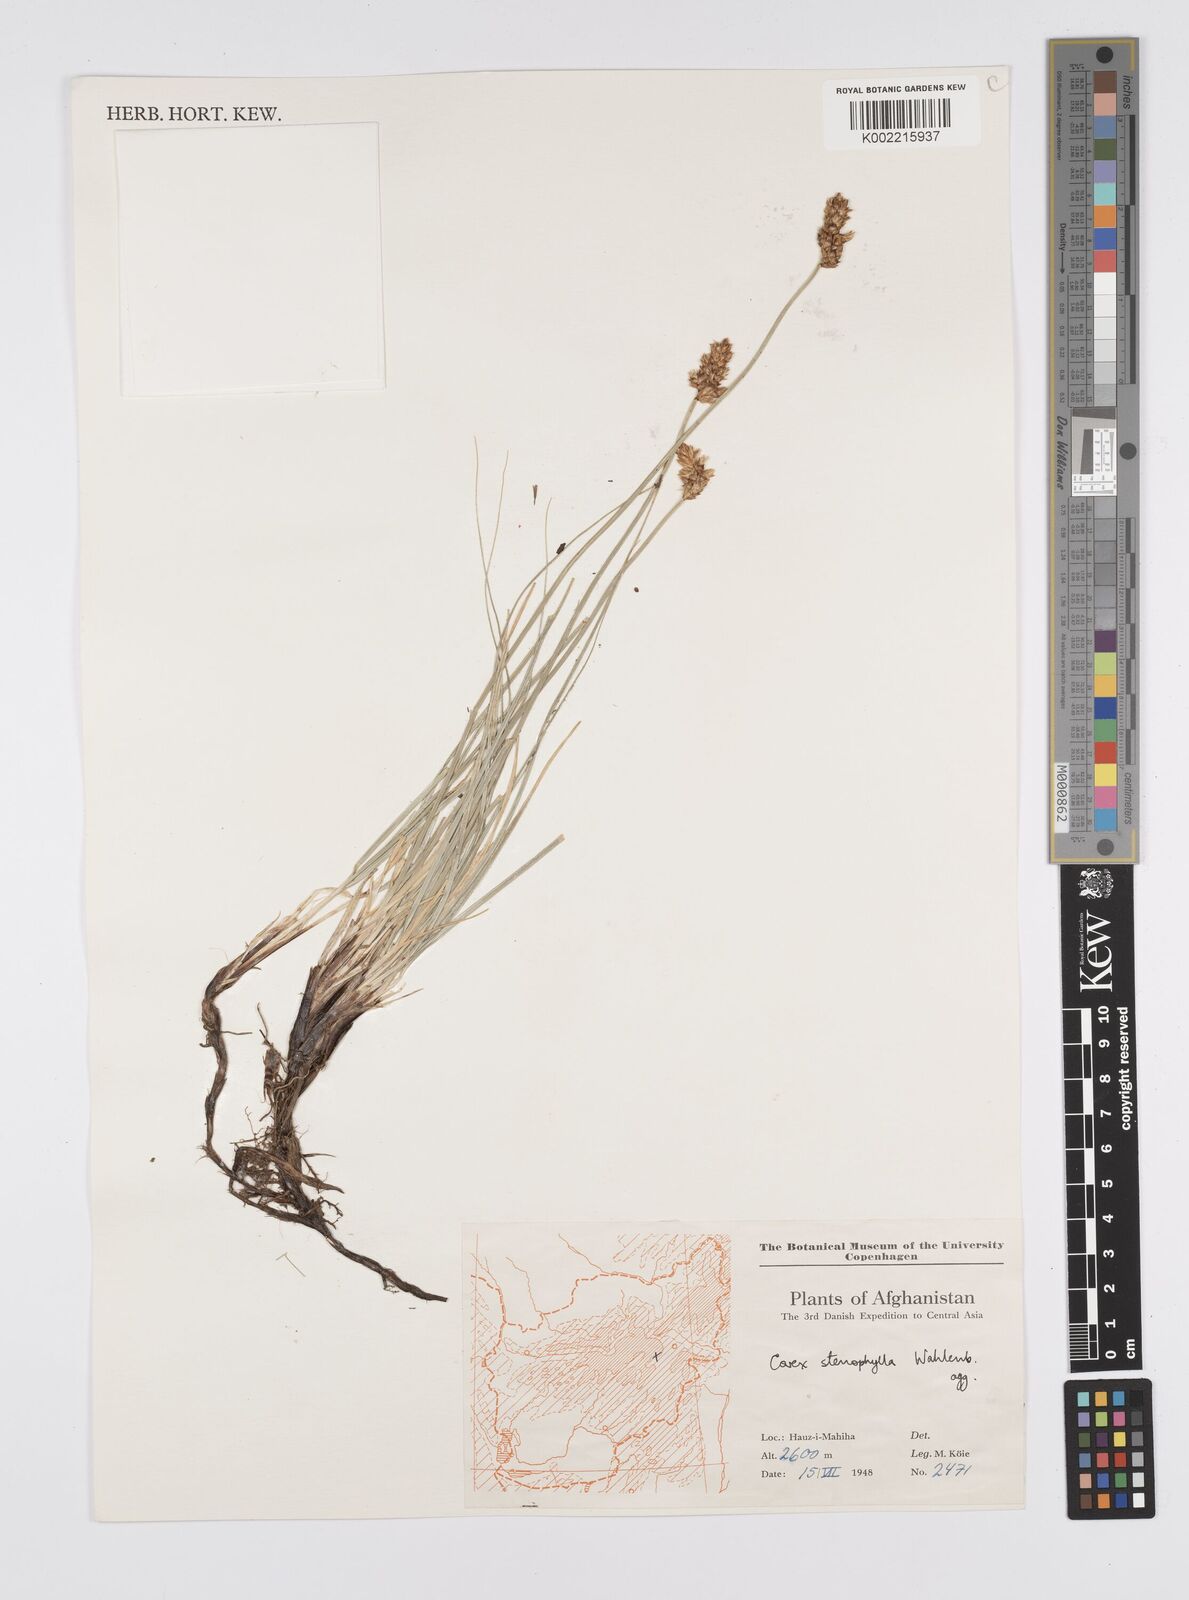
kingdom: Plantae
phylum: Tracheophyta
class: Liliopsida
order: Poales
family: Cyperaceae
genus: Carex
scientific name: Carex stenophylla
